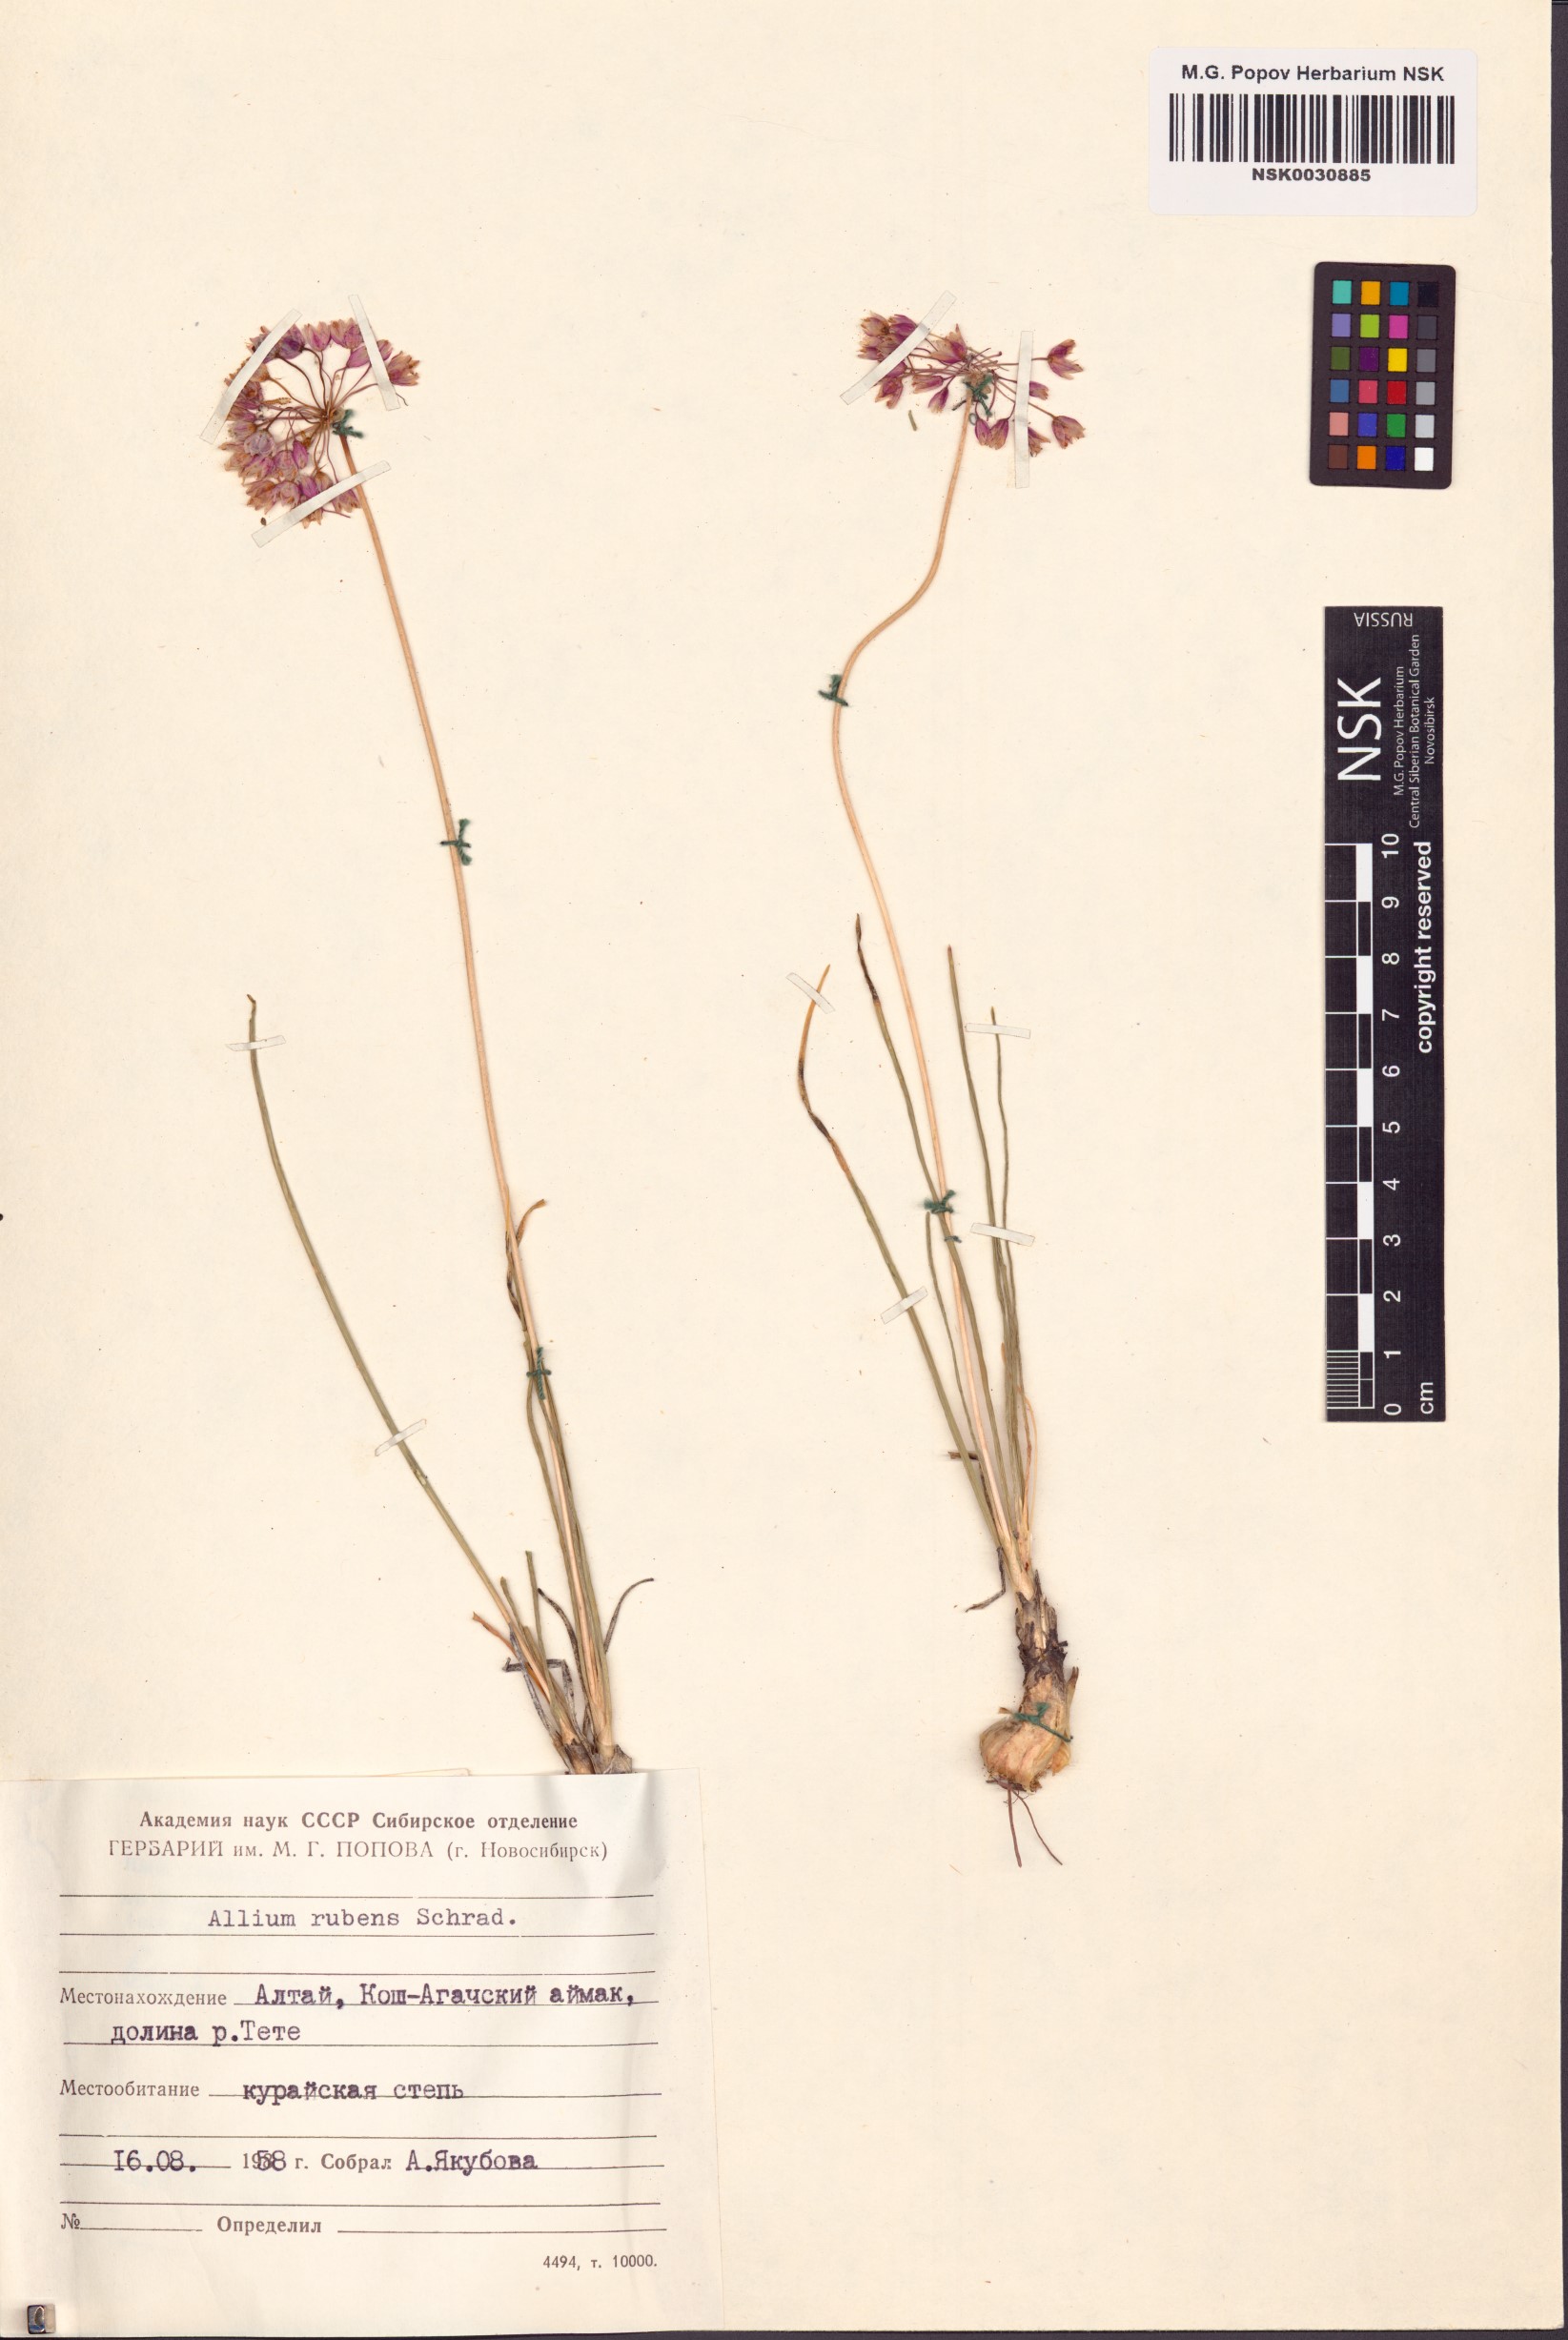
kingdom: Plantae
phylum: Tracheophyta
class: Liliopsida
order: Asparagales
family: Amaryllidaceae
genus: Allium
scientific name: Allium rubens
